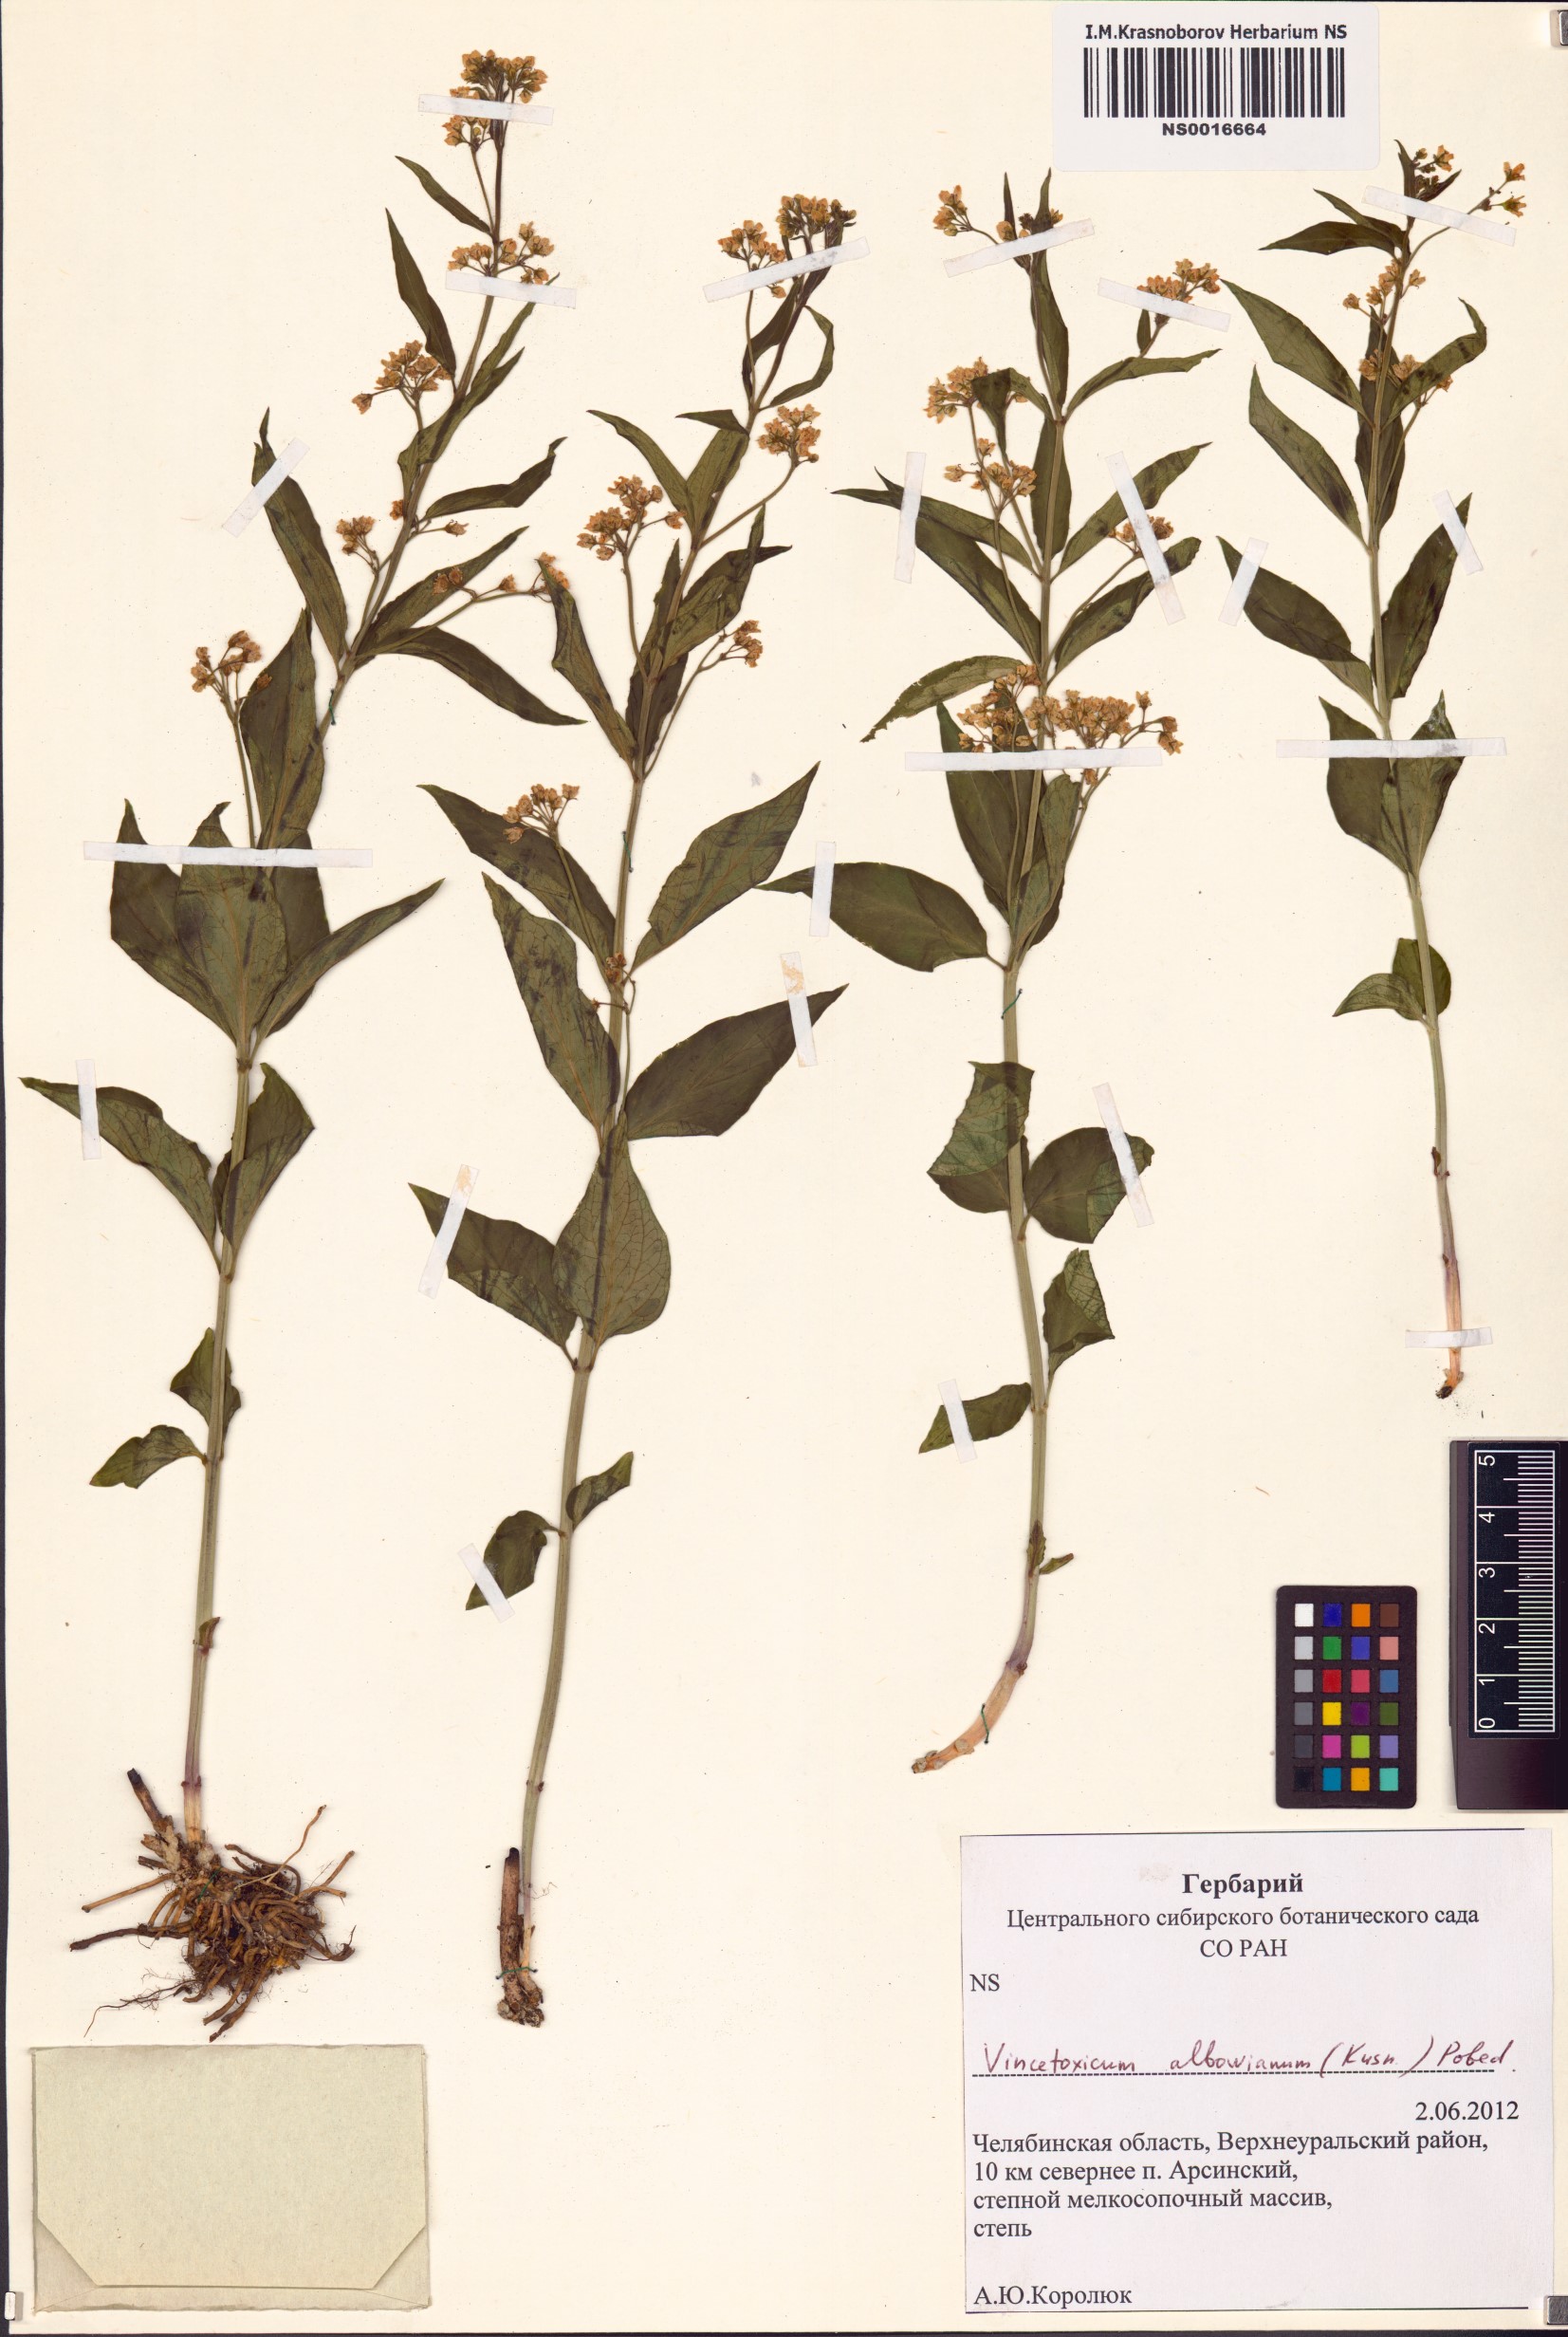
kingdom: Plantae
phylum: Tracheophyta
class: Magnoliopsida
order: Gentianales
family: Apocynaceae
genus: Vincetoxicum
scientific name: Vincetoxicum hirundinaria
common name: White swallowwort
